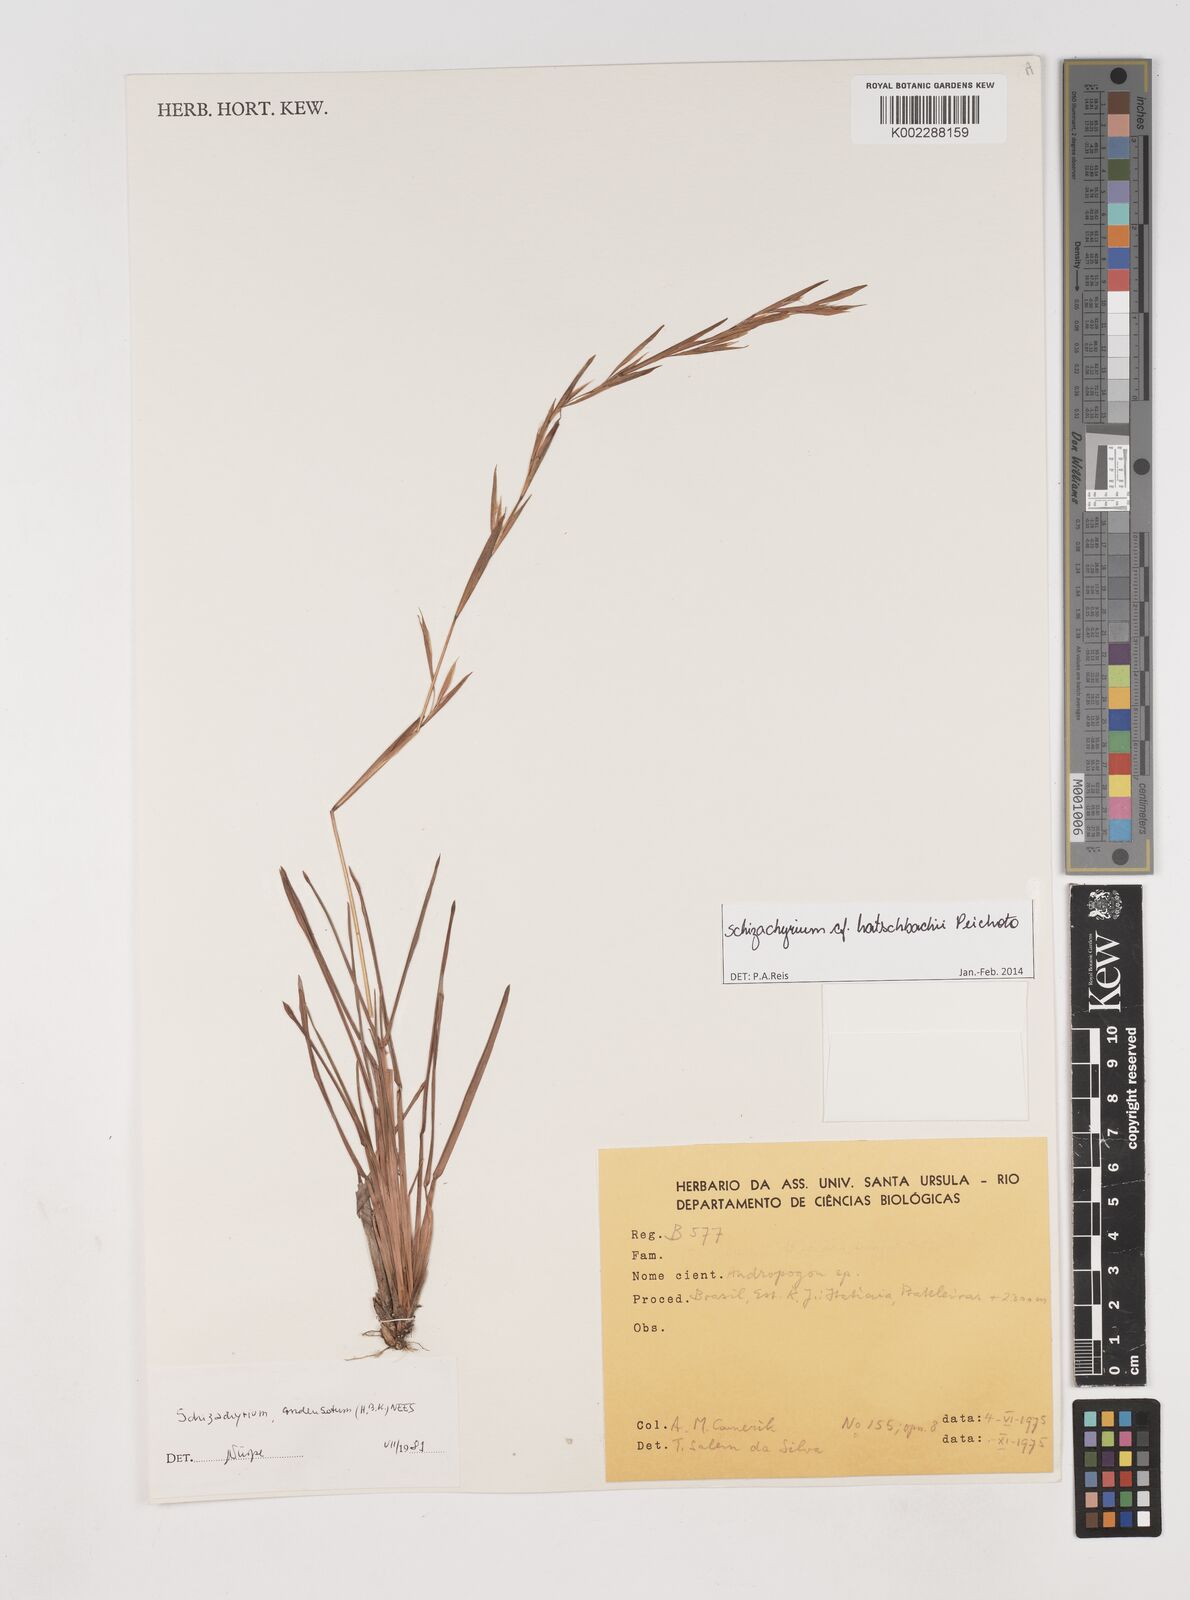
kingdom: Plantae
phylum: Tracheophyta
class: Liliopsida
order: Poales
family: Poaceae
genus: Schizachyrium
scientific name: Schizachyrium hatschbachii
